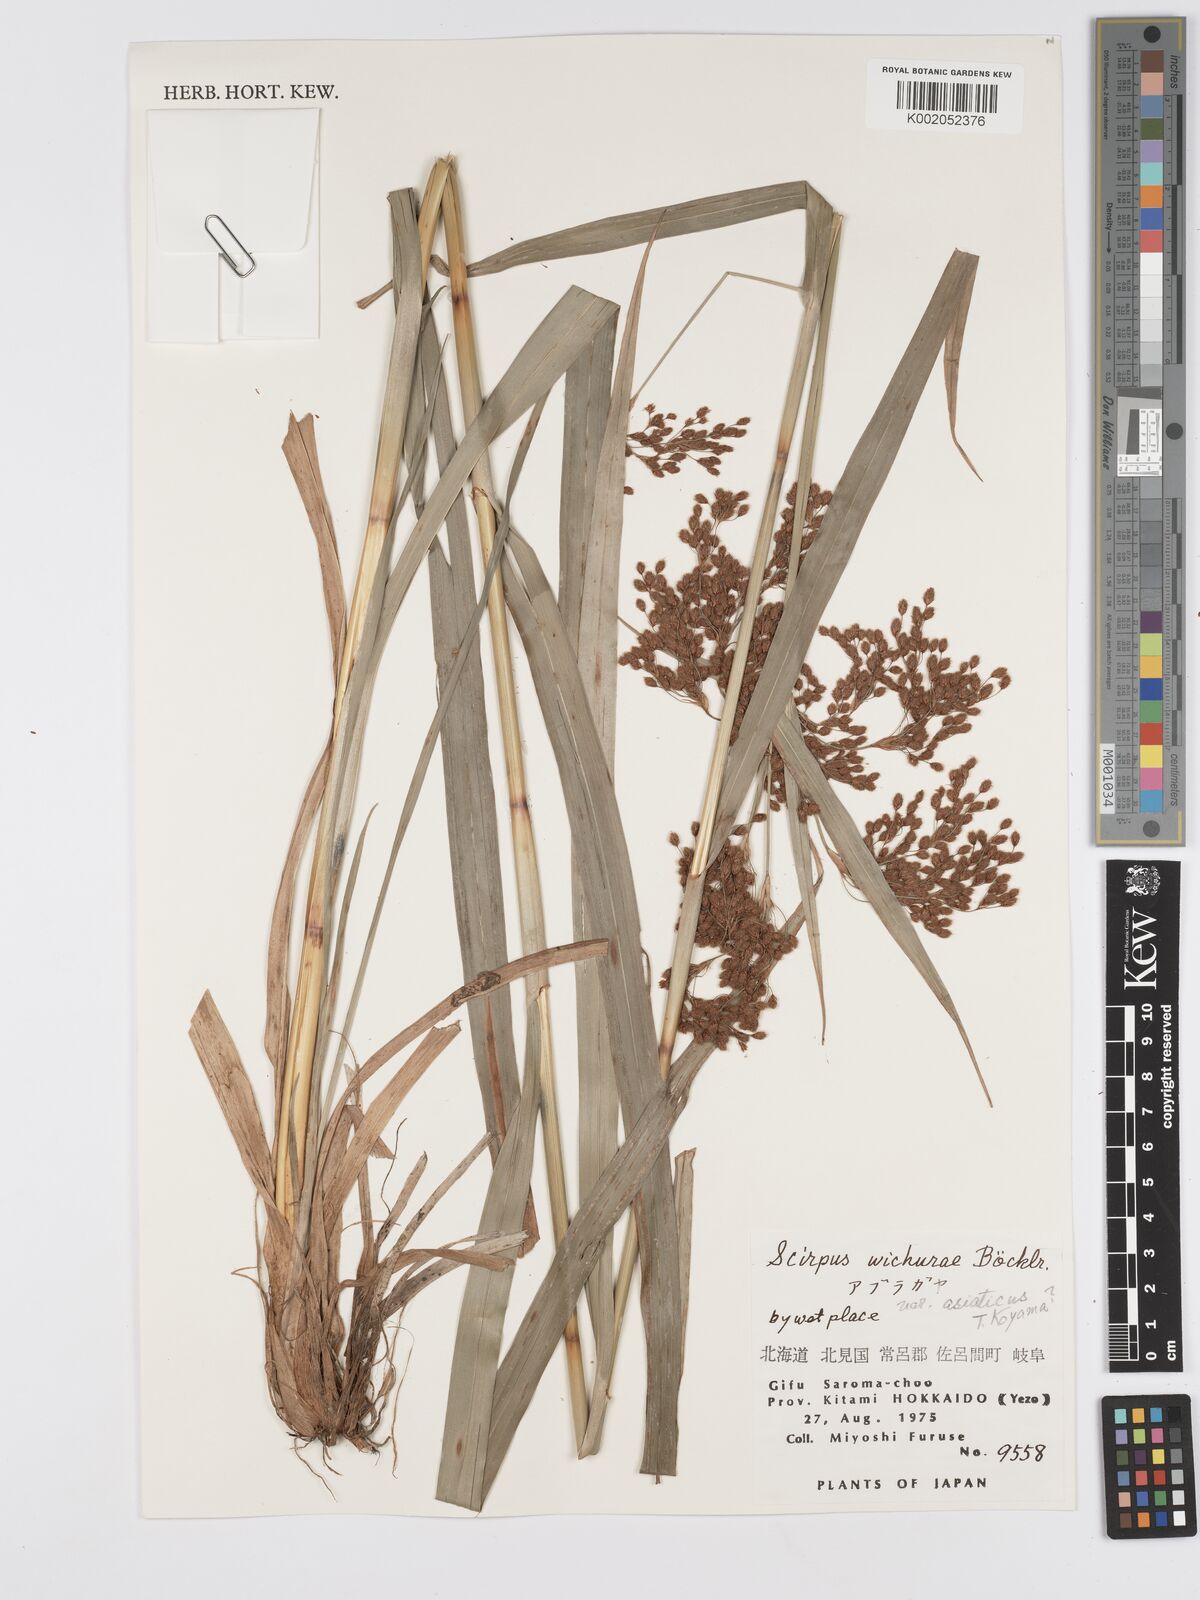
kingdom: Plantae
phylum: Tracheophyta
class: Liliopsida
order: Poales
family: Cyperaceae
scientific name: Cyperaceae
